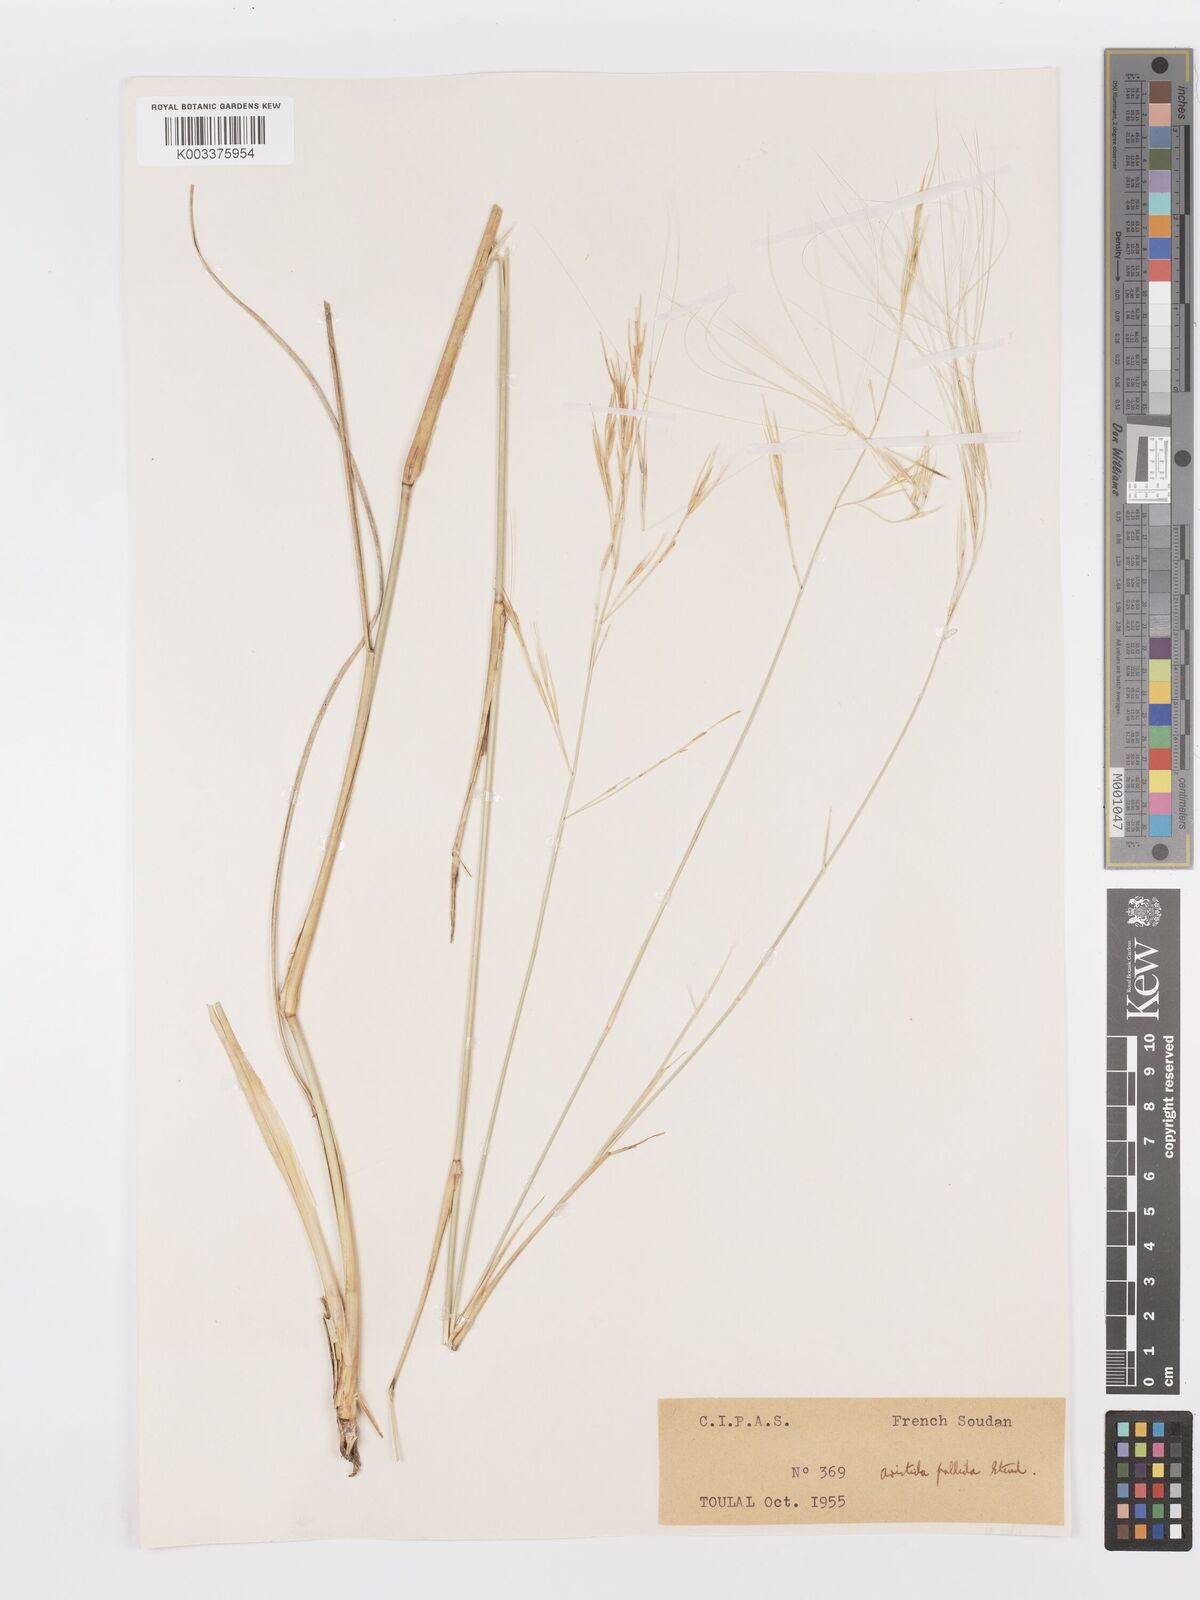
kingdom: Plantae
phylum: Tracheophyta
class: Liliopsida
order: Poales
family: Poaceae
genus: Aristida
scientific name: Aristida sieberiana
